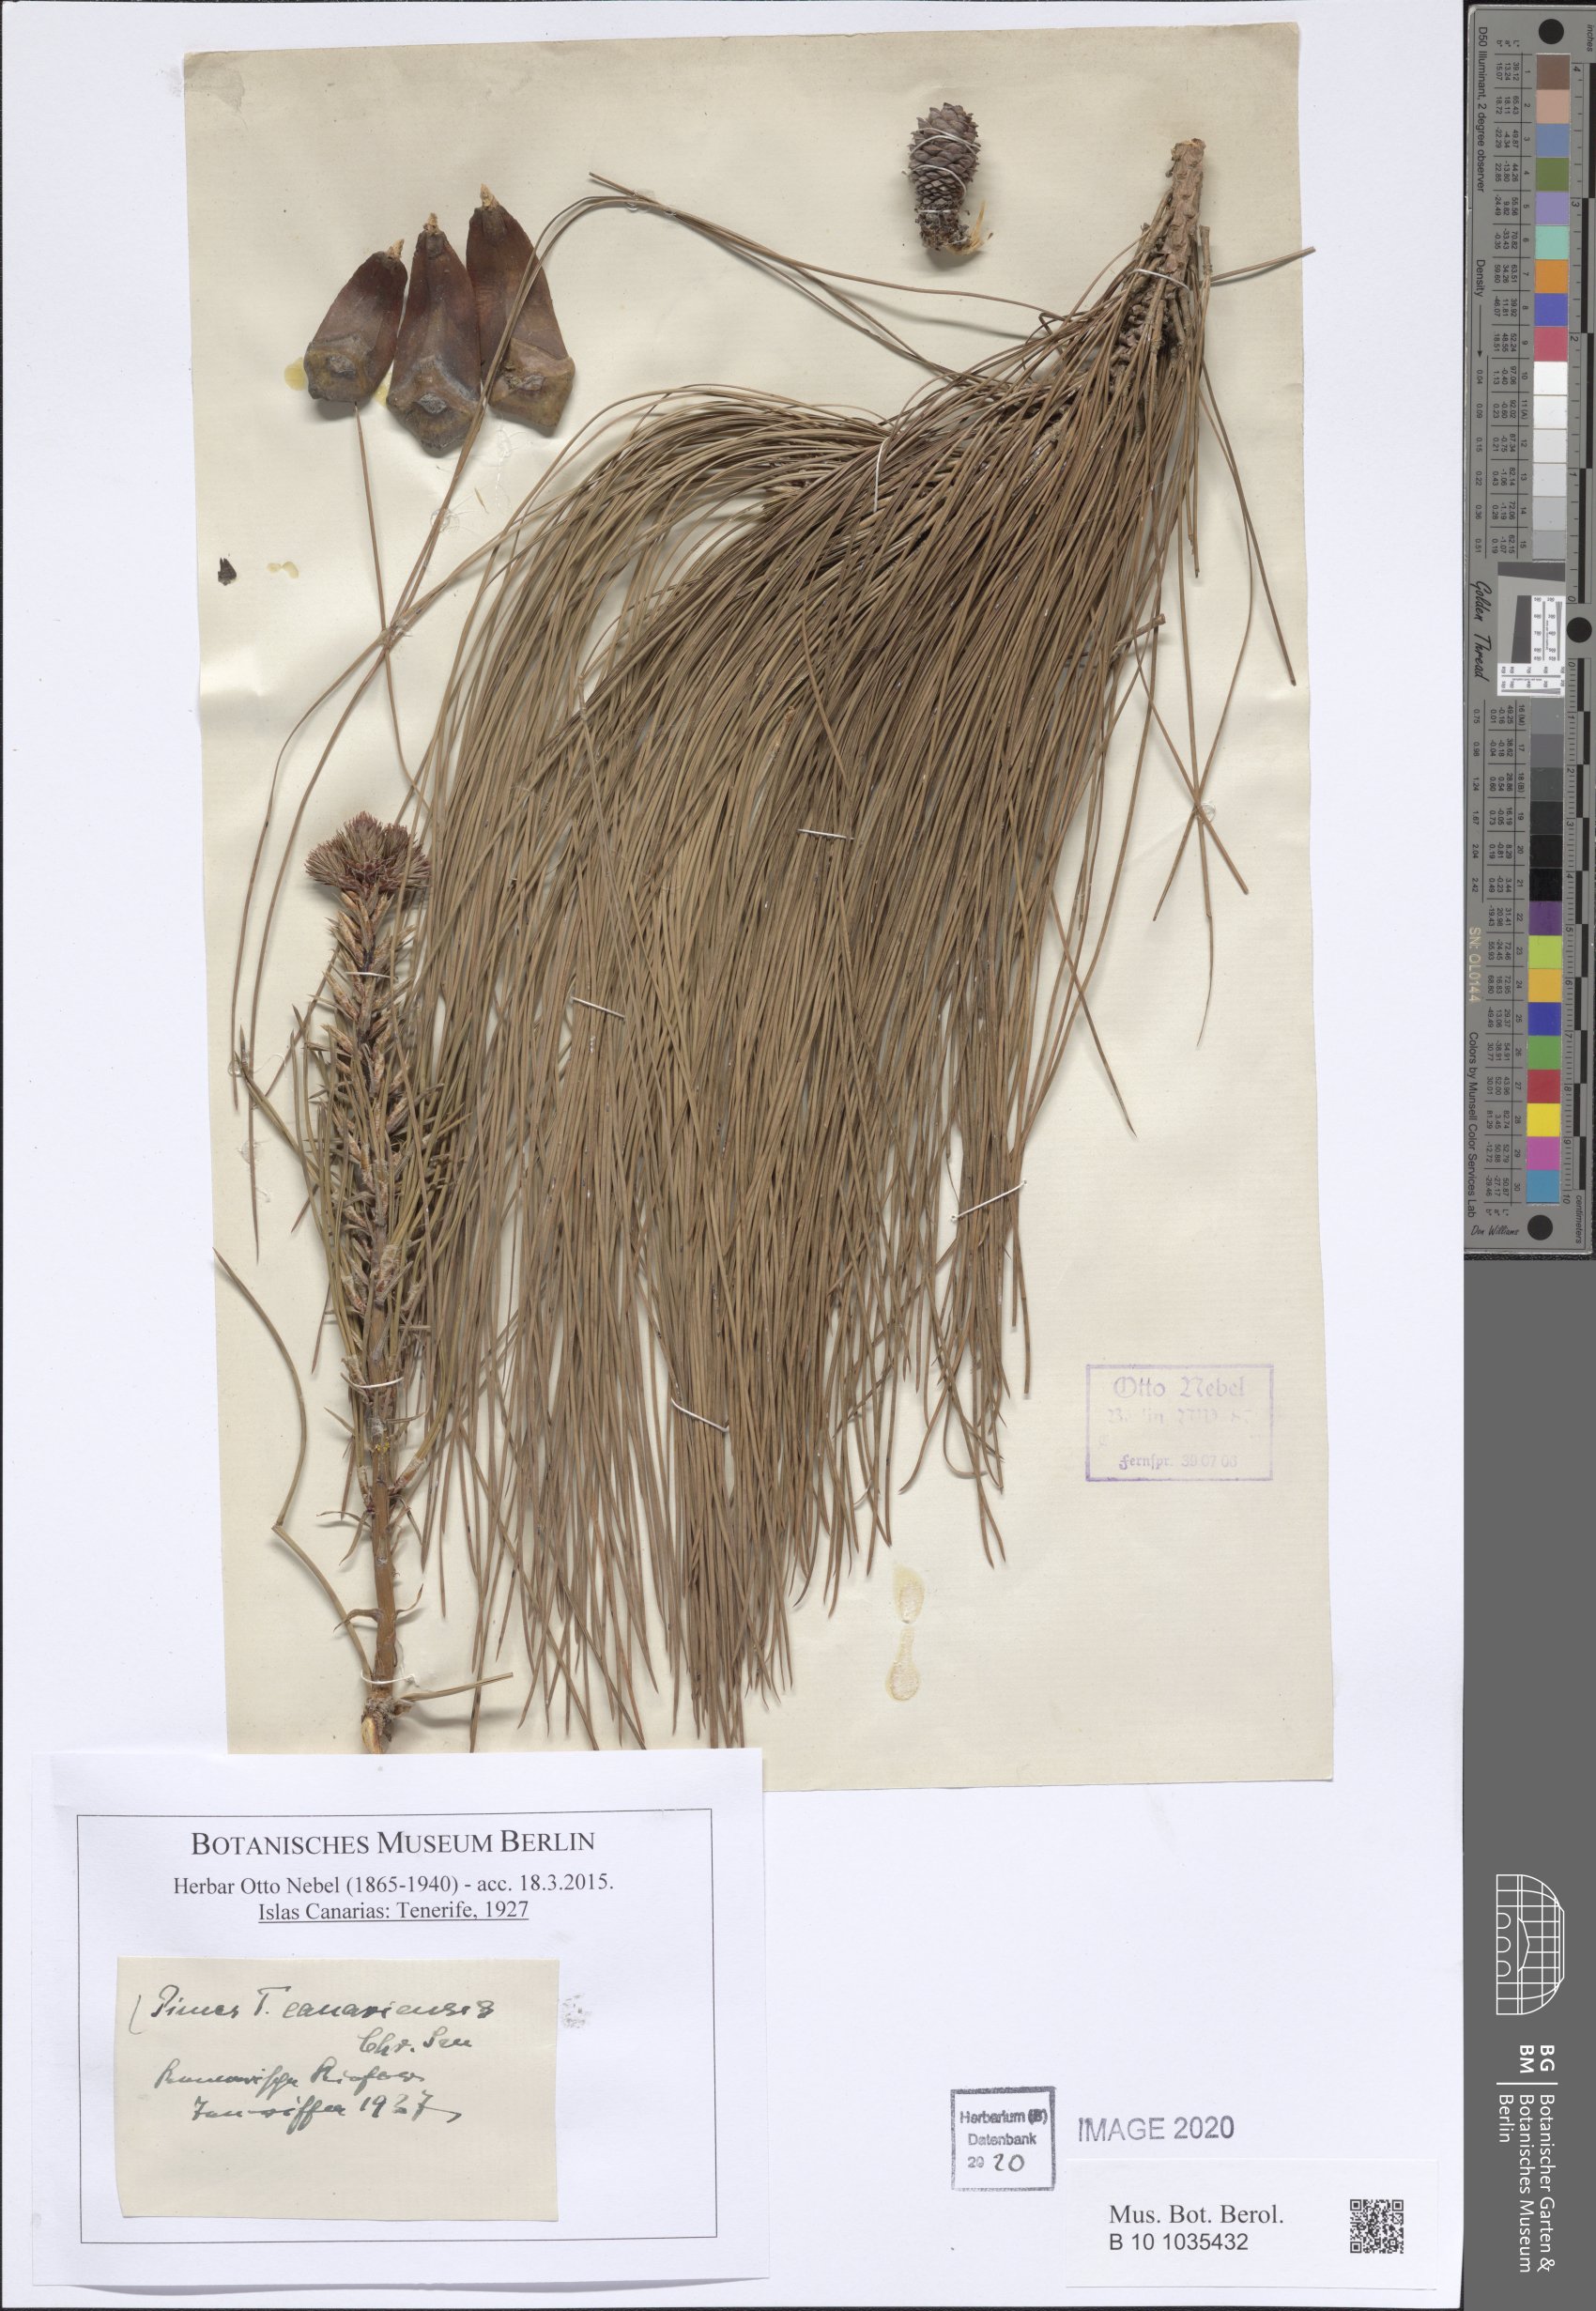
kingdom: Plantae
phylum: Tracheophyta
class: Pinopsida
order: Pinales
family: Pinaceae
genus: Pinus
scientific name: Pinus canariensis
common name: Canary islands pine
